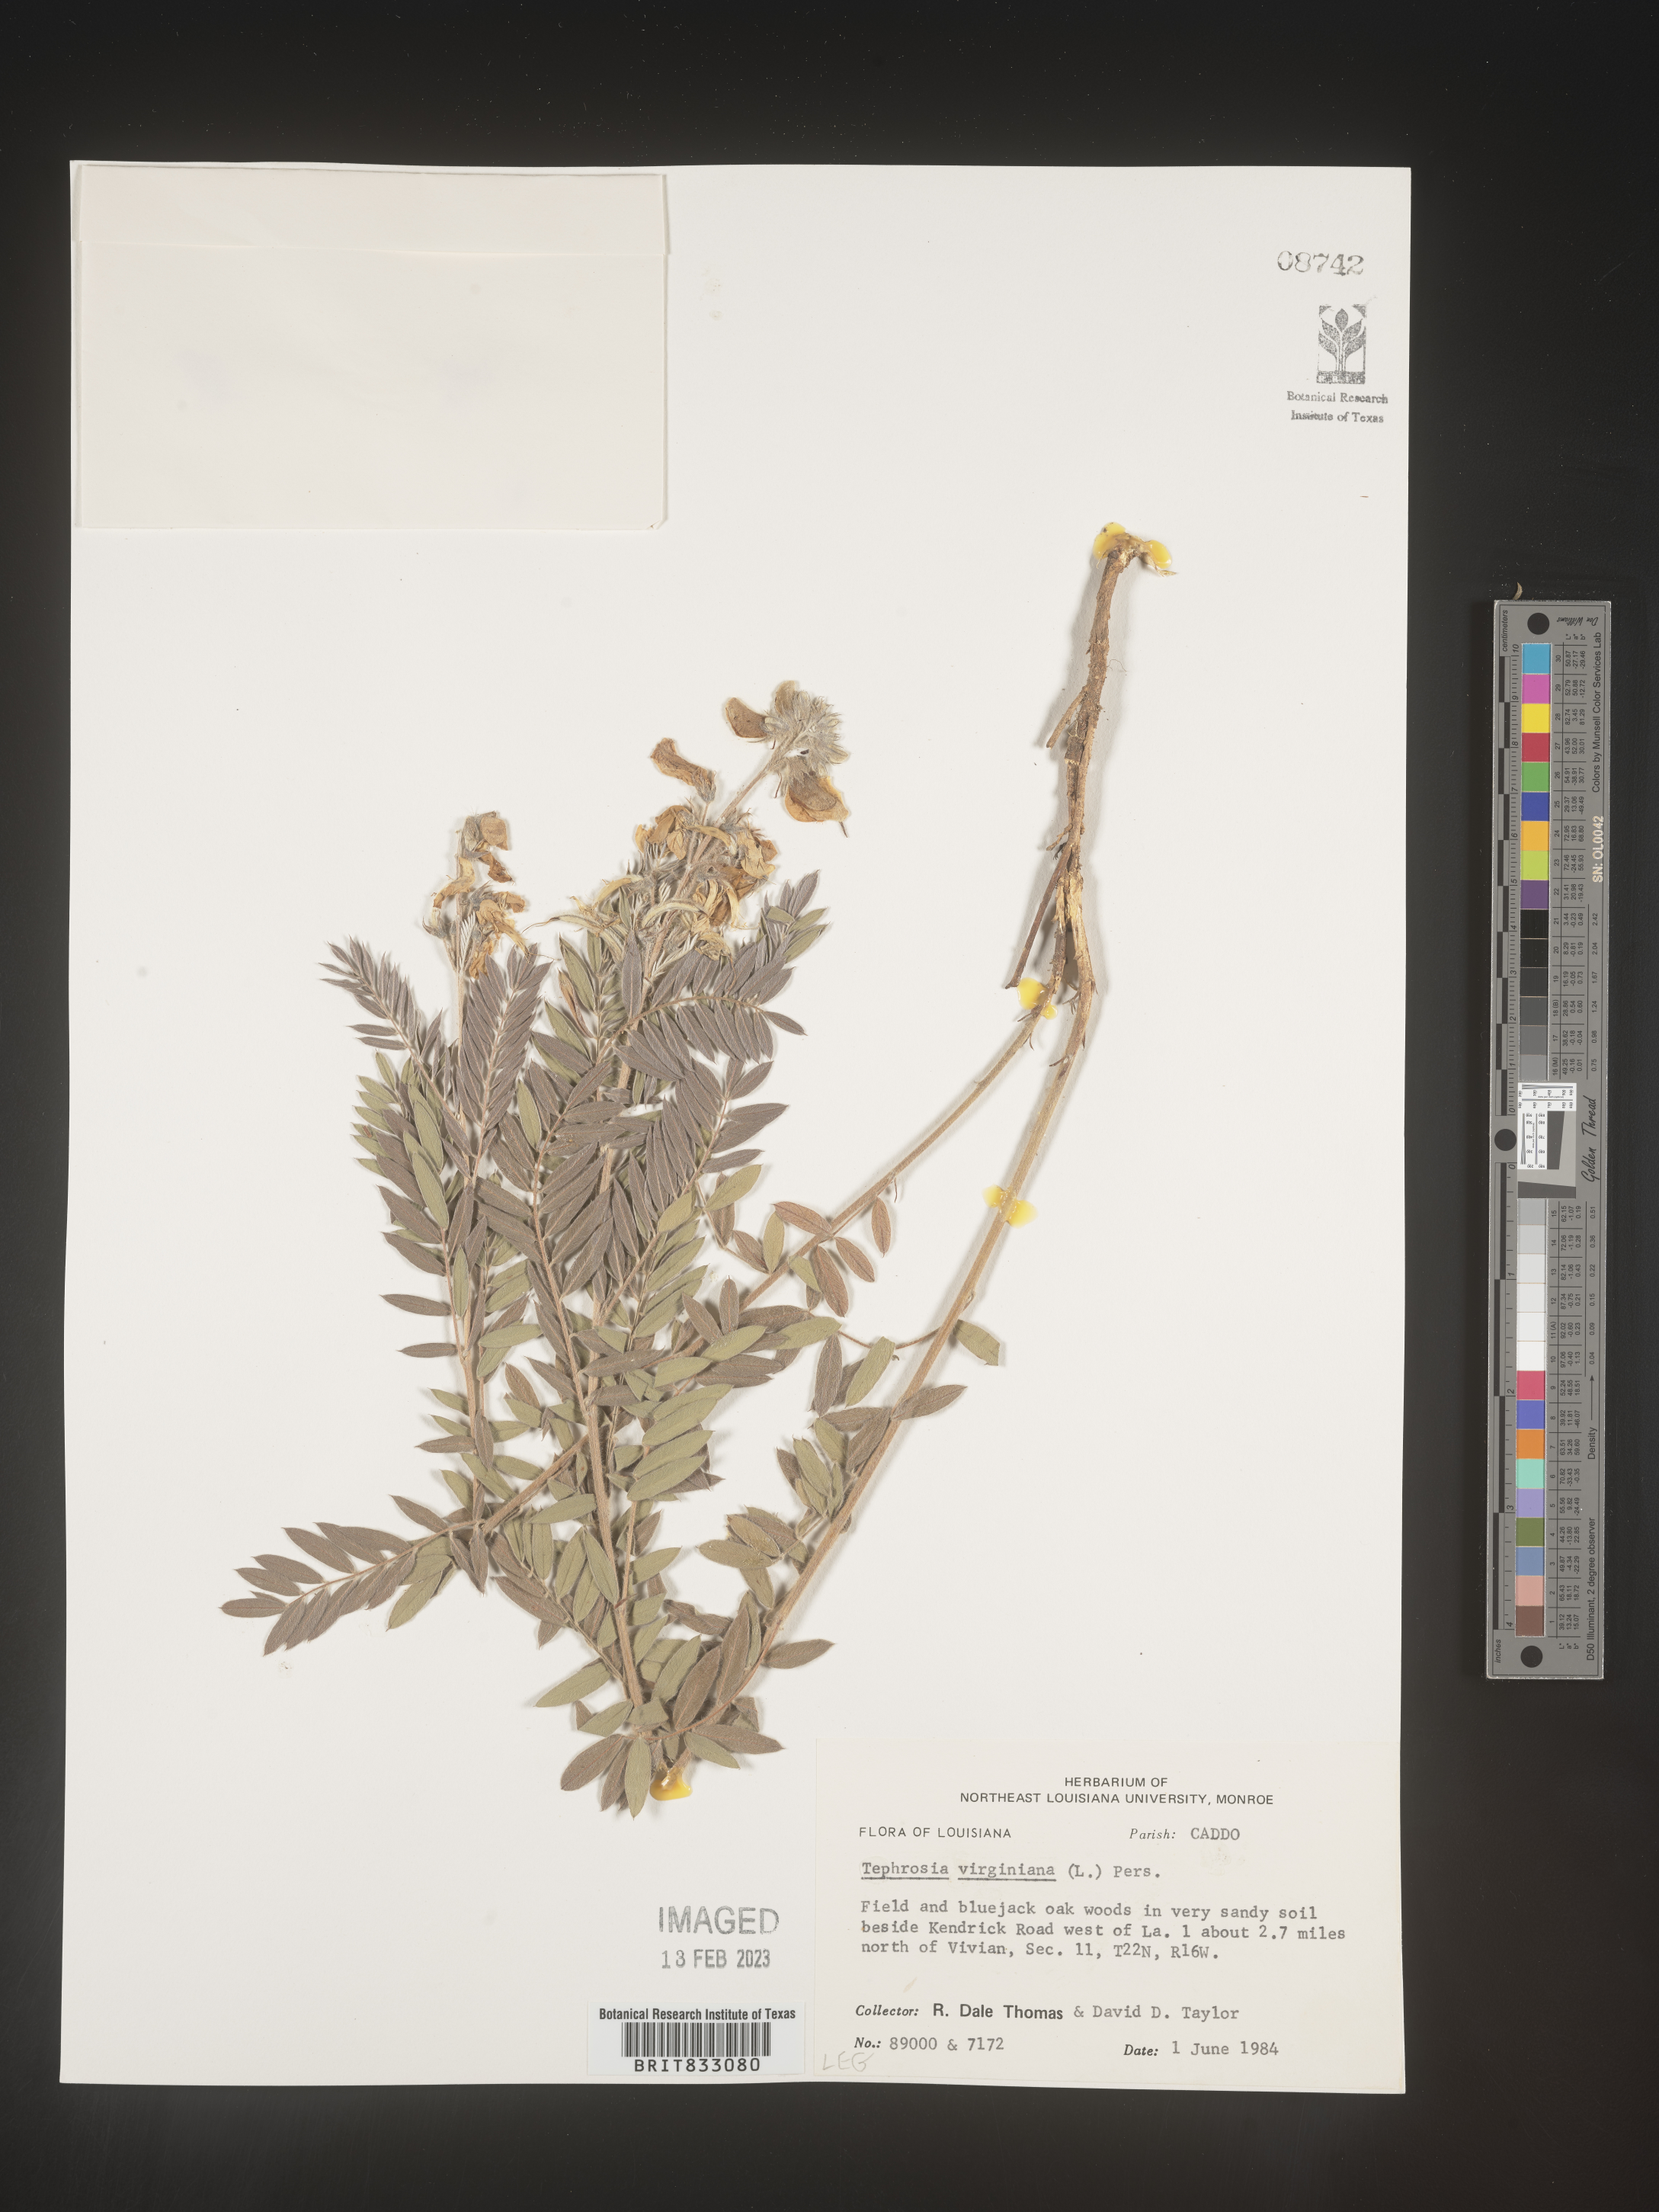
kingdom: Plantae
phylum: Tracheophyta
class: Magnoliopsida
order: Fabales
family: Fabaceae
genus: Tephrosia
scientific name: Tephrosia virginiana
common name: Rabbit-pea
